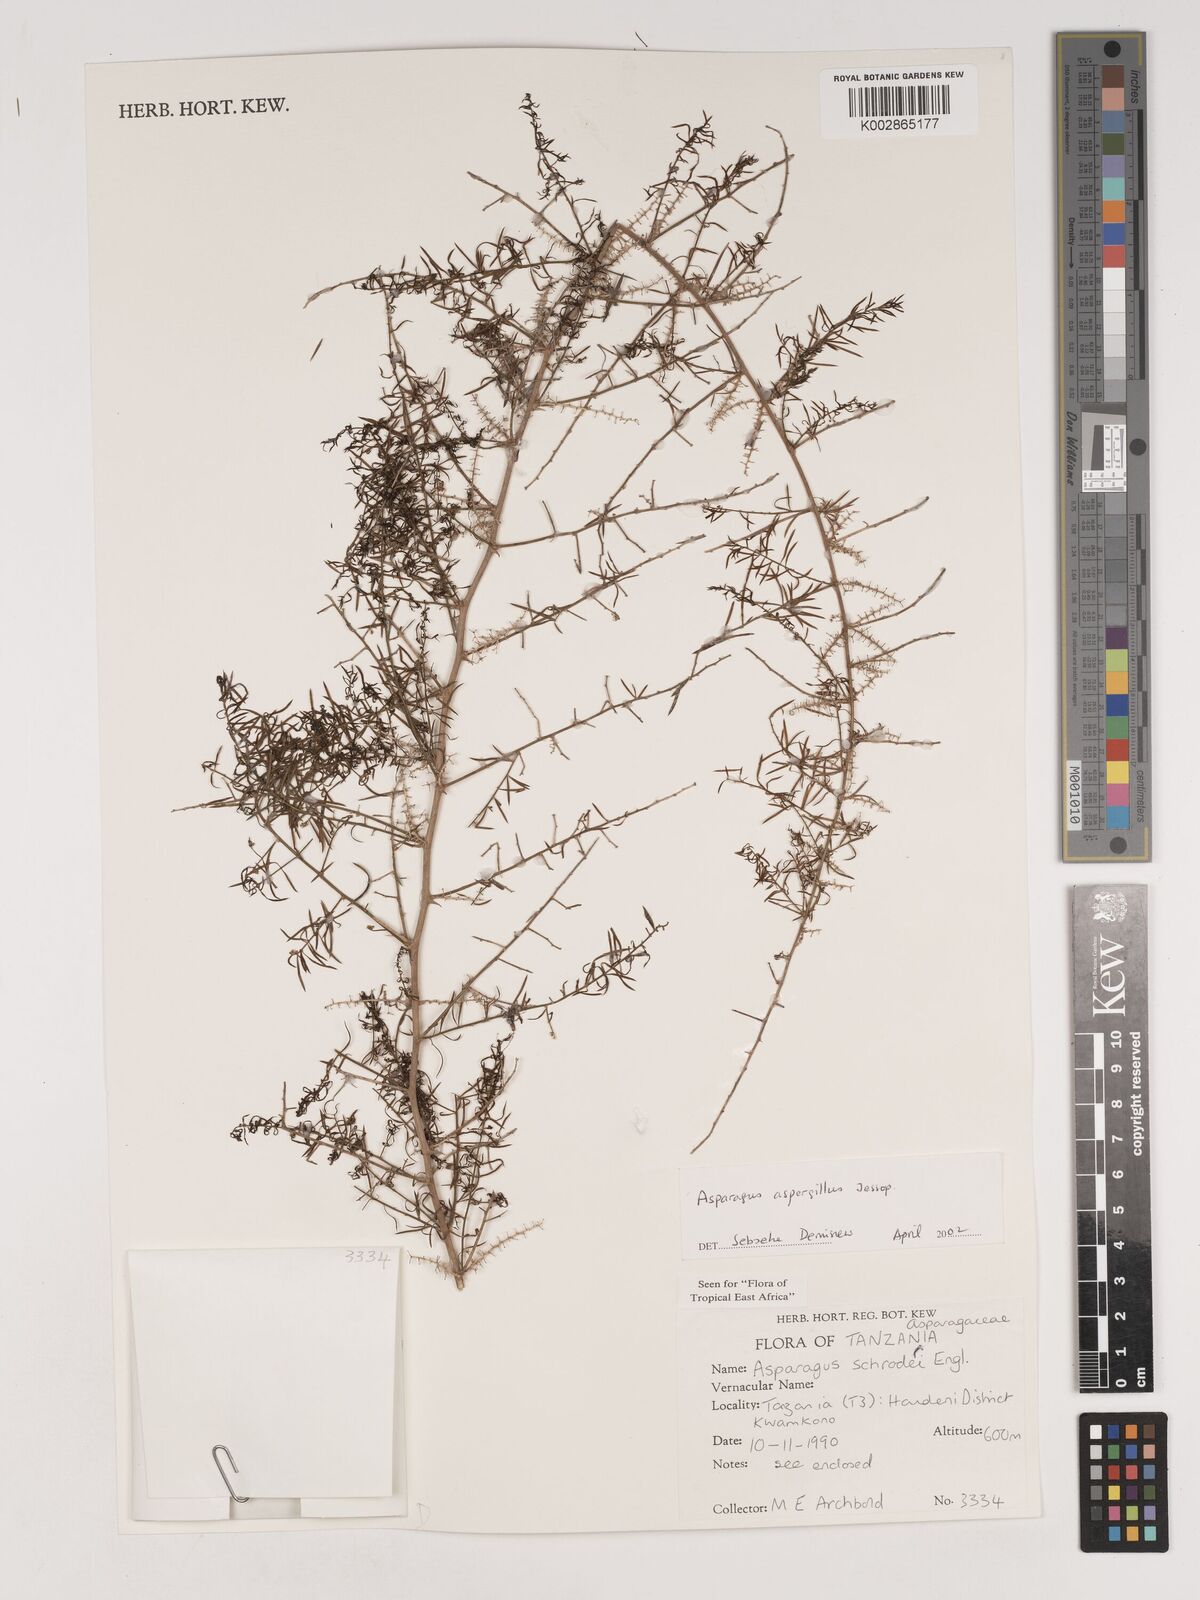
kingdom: Plantae
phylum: Tracheophyta
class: Liliopsida
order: Asparagales
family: Asparagaceae
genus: Asparagus
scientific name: Asparagus aspergillus
